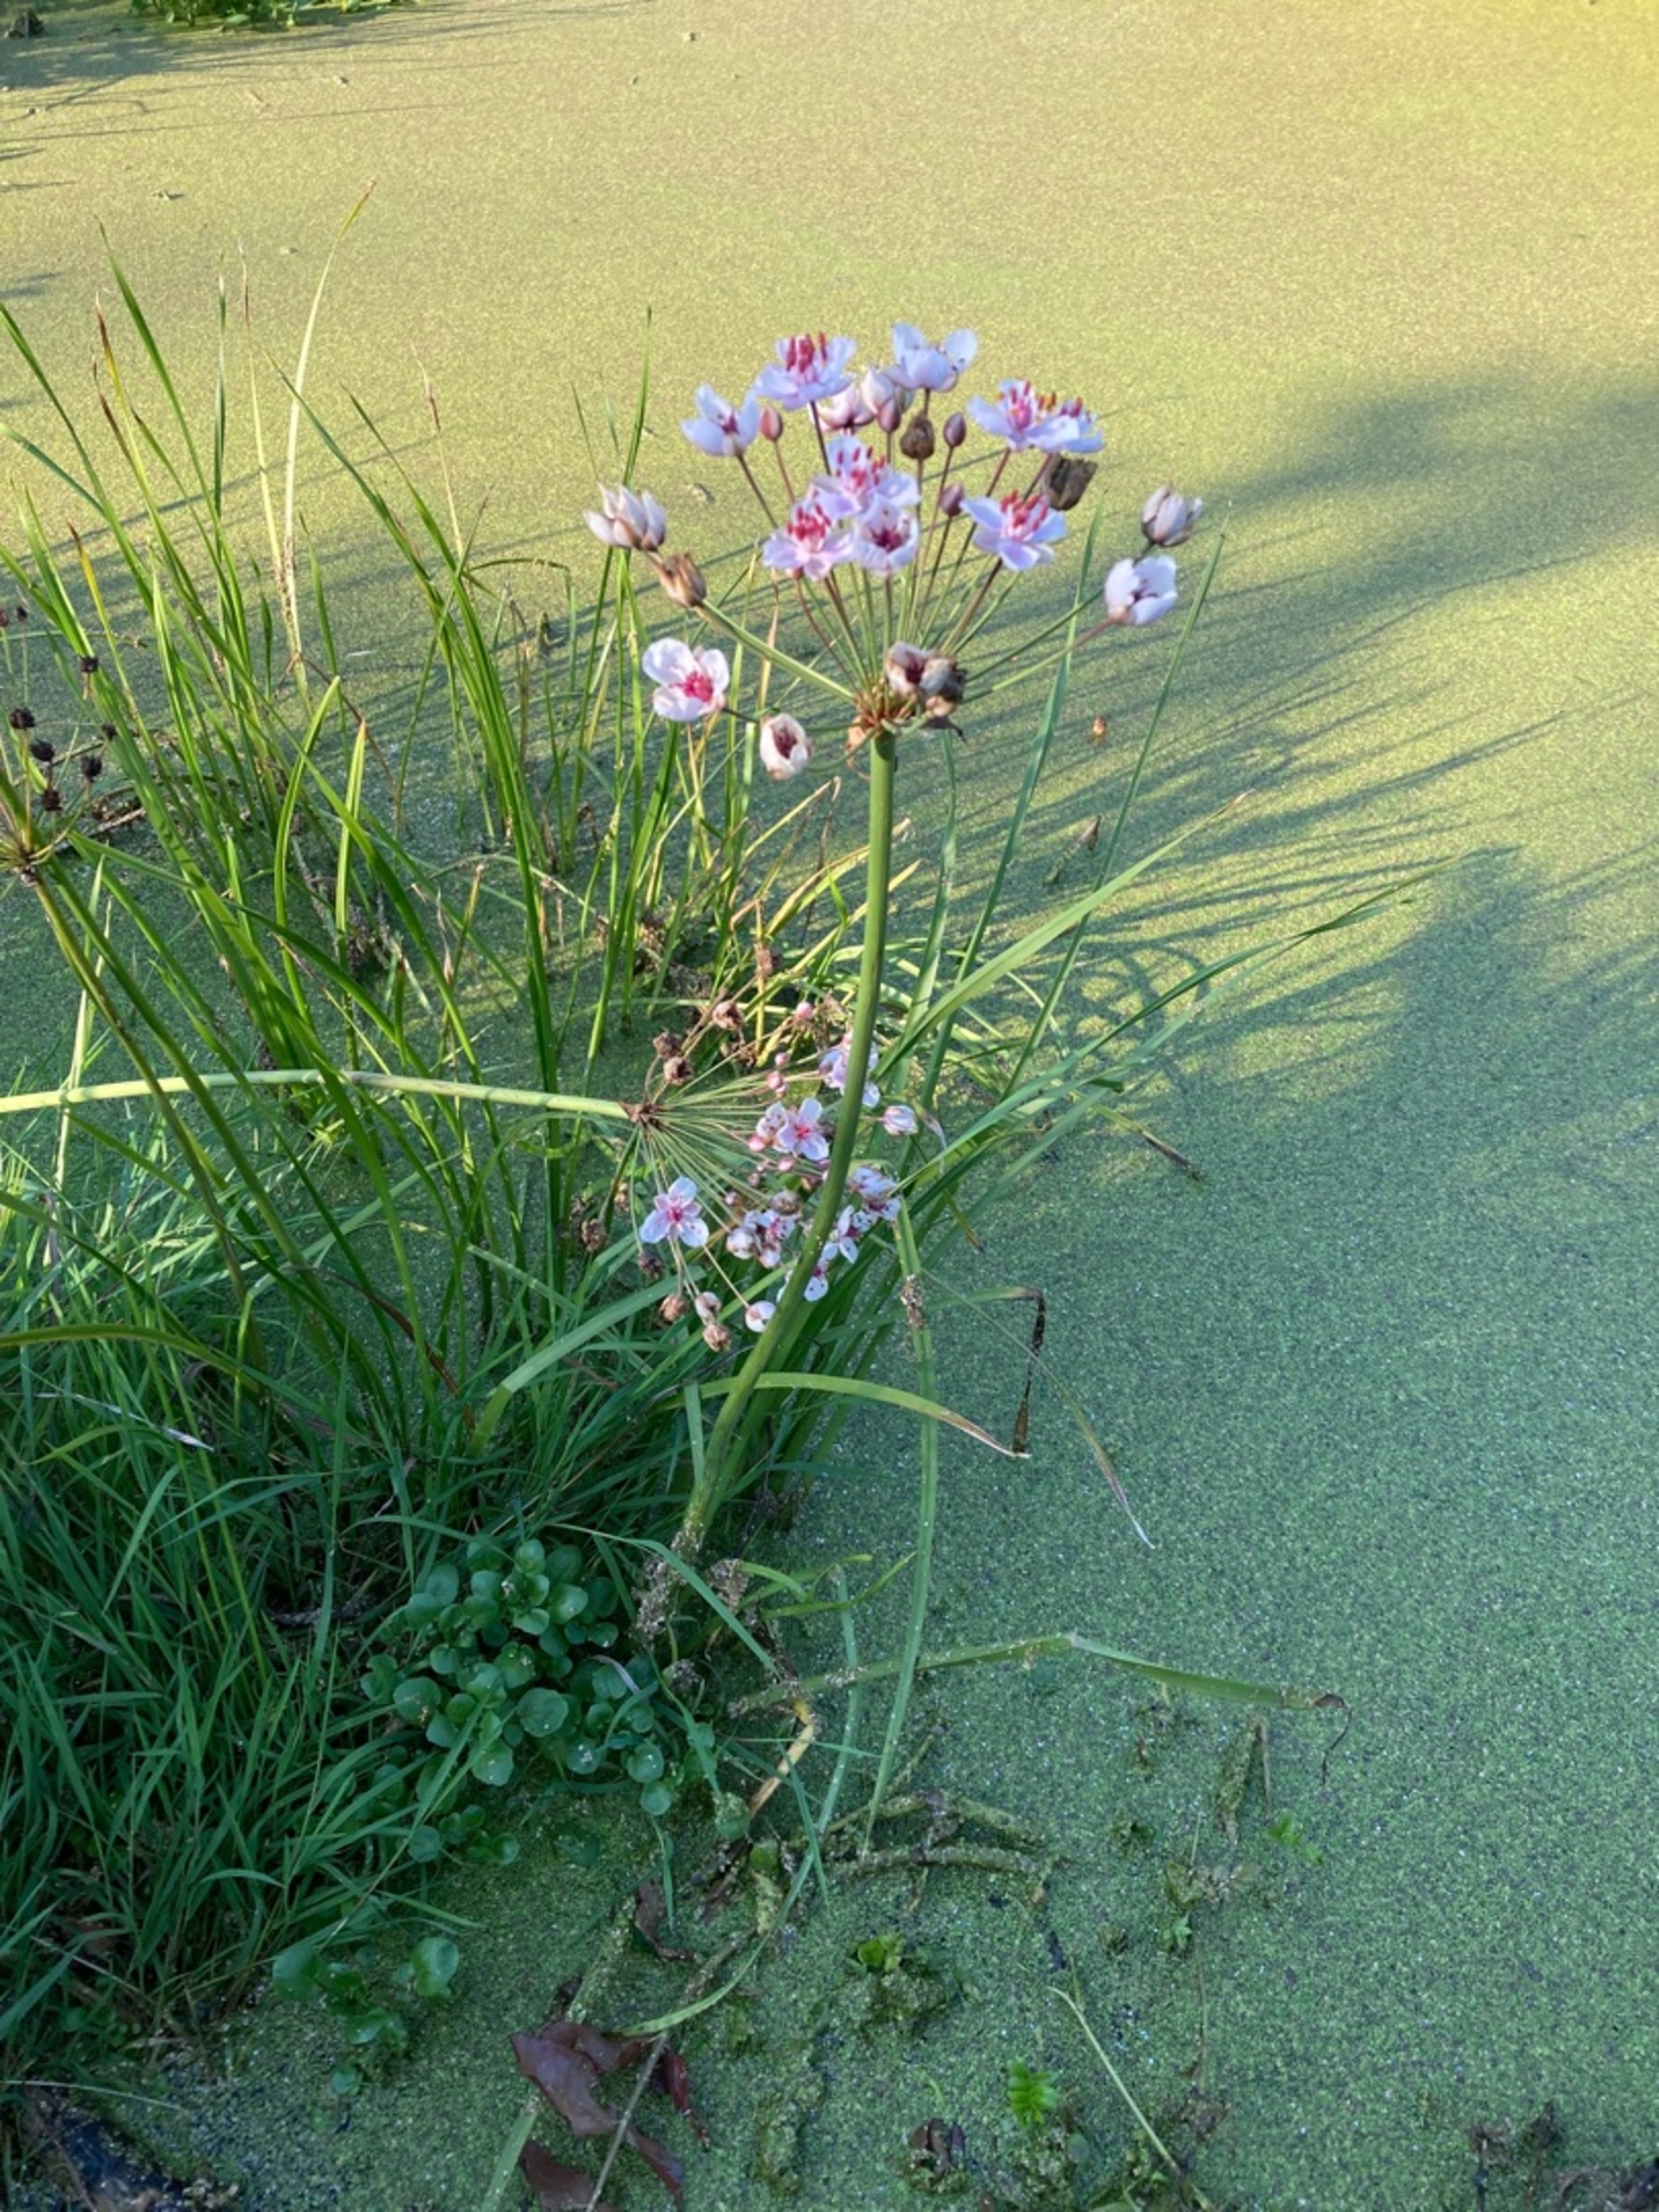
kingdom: Plantae
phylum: Tracheophyta
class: Liliopsida
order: Alismatales
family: Butomaceae
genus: Butomus
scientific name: Butomus umbellatus
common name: Brudelys
